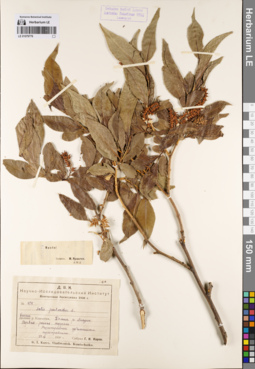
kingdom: Plantae
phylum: Tracheophyta
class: Magnoliopsida
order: Malpighiales
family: Salicaceae
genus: Salix
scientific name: Salix pseudopentandra
